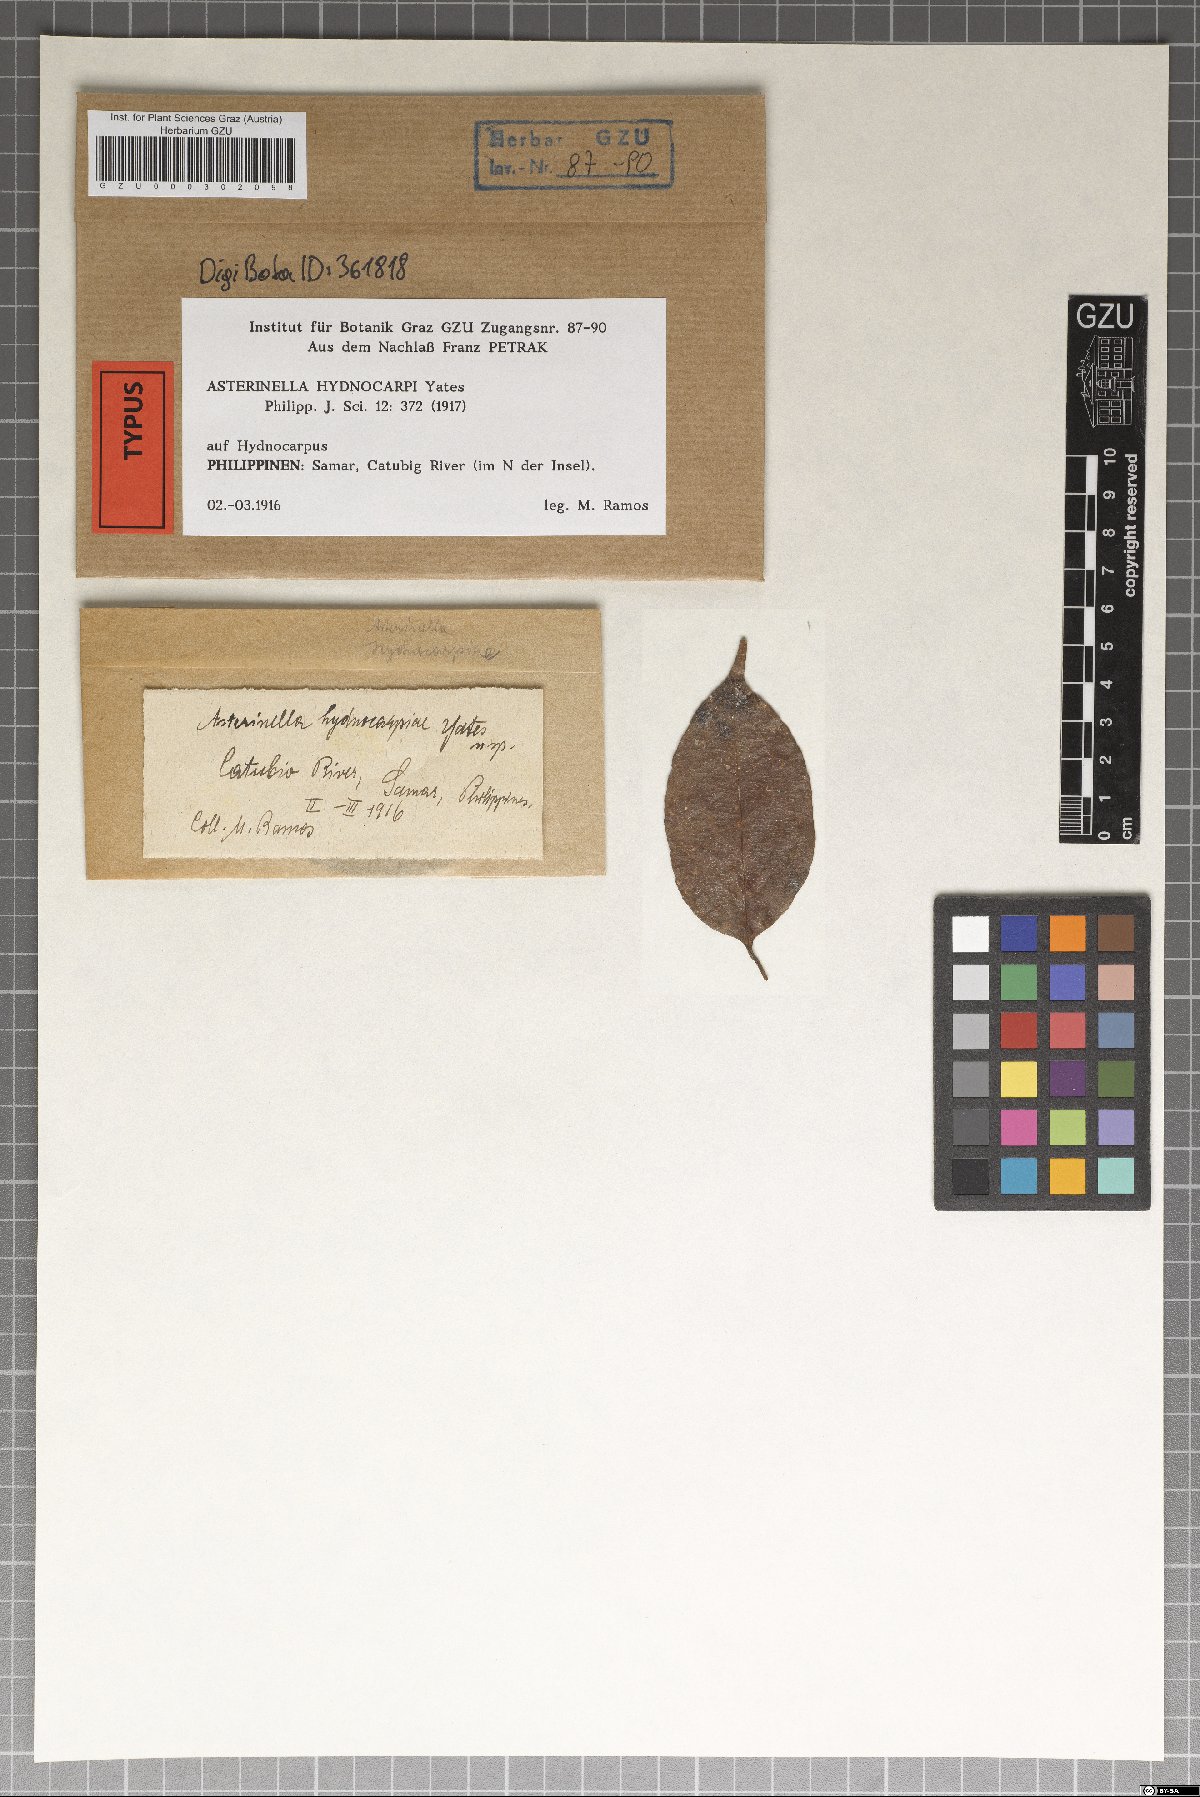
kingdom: Fungi
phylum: Ascomycota
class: Dothideomycetes
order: Asterinales
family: Asterinaceae
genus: Prillieuxina
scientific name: Prillieuxina hydnocarpi
